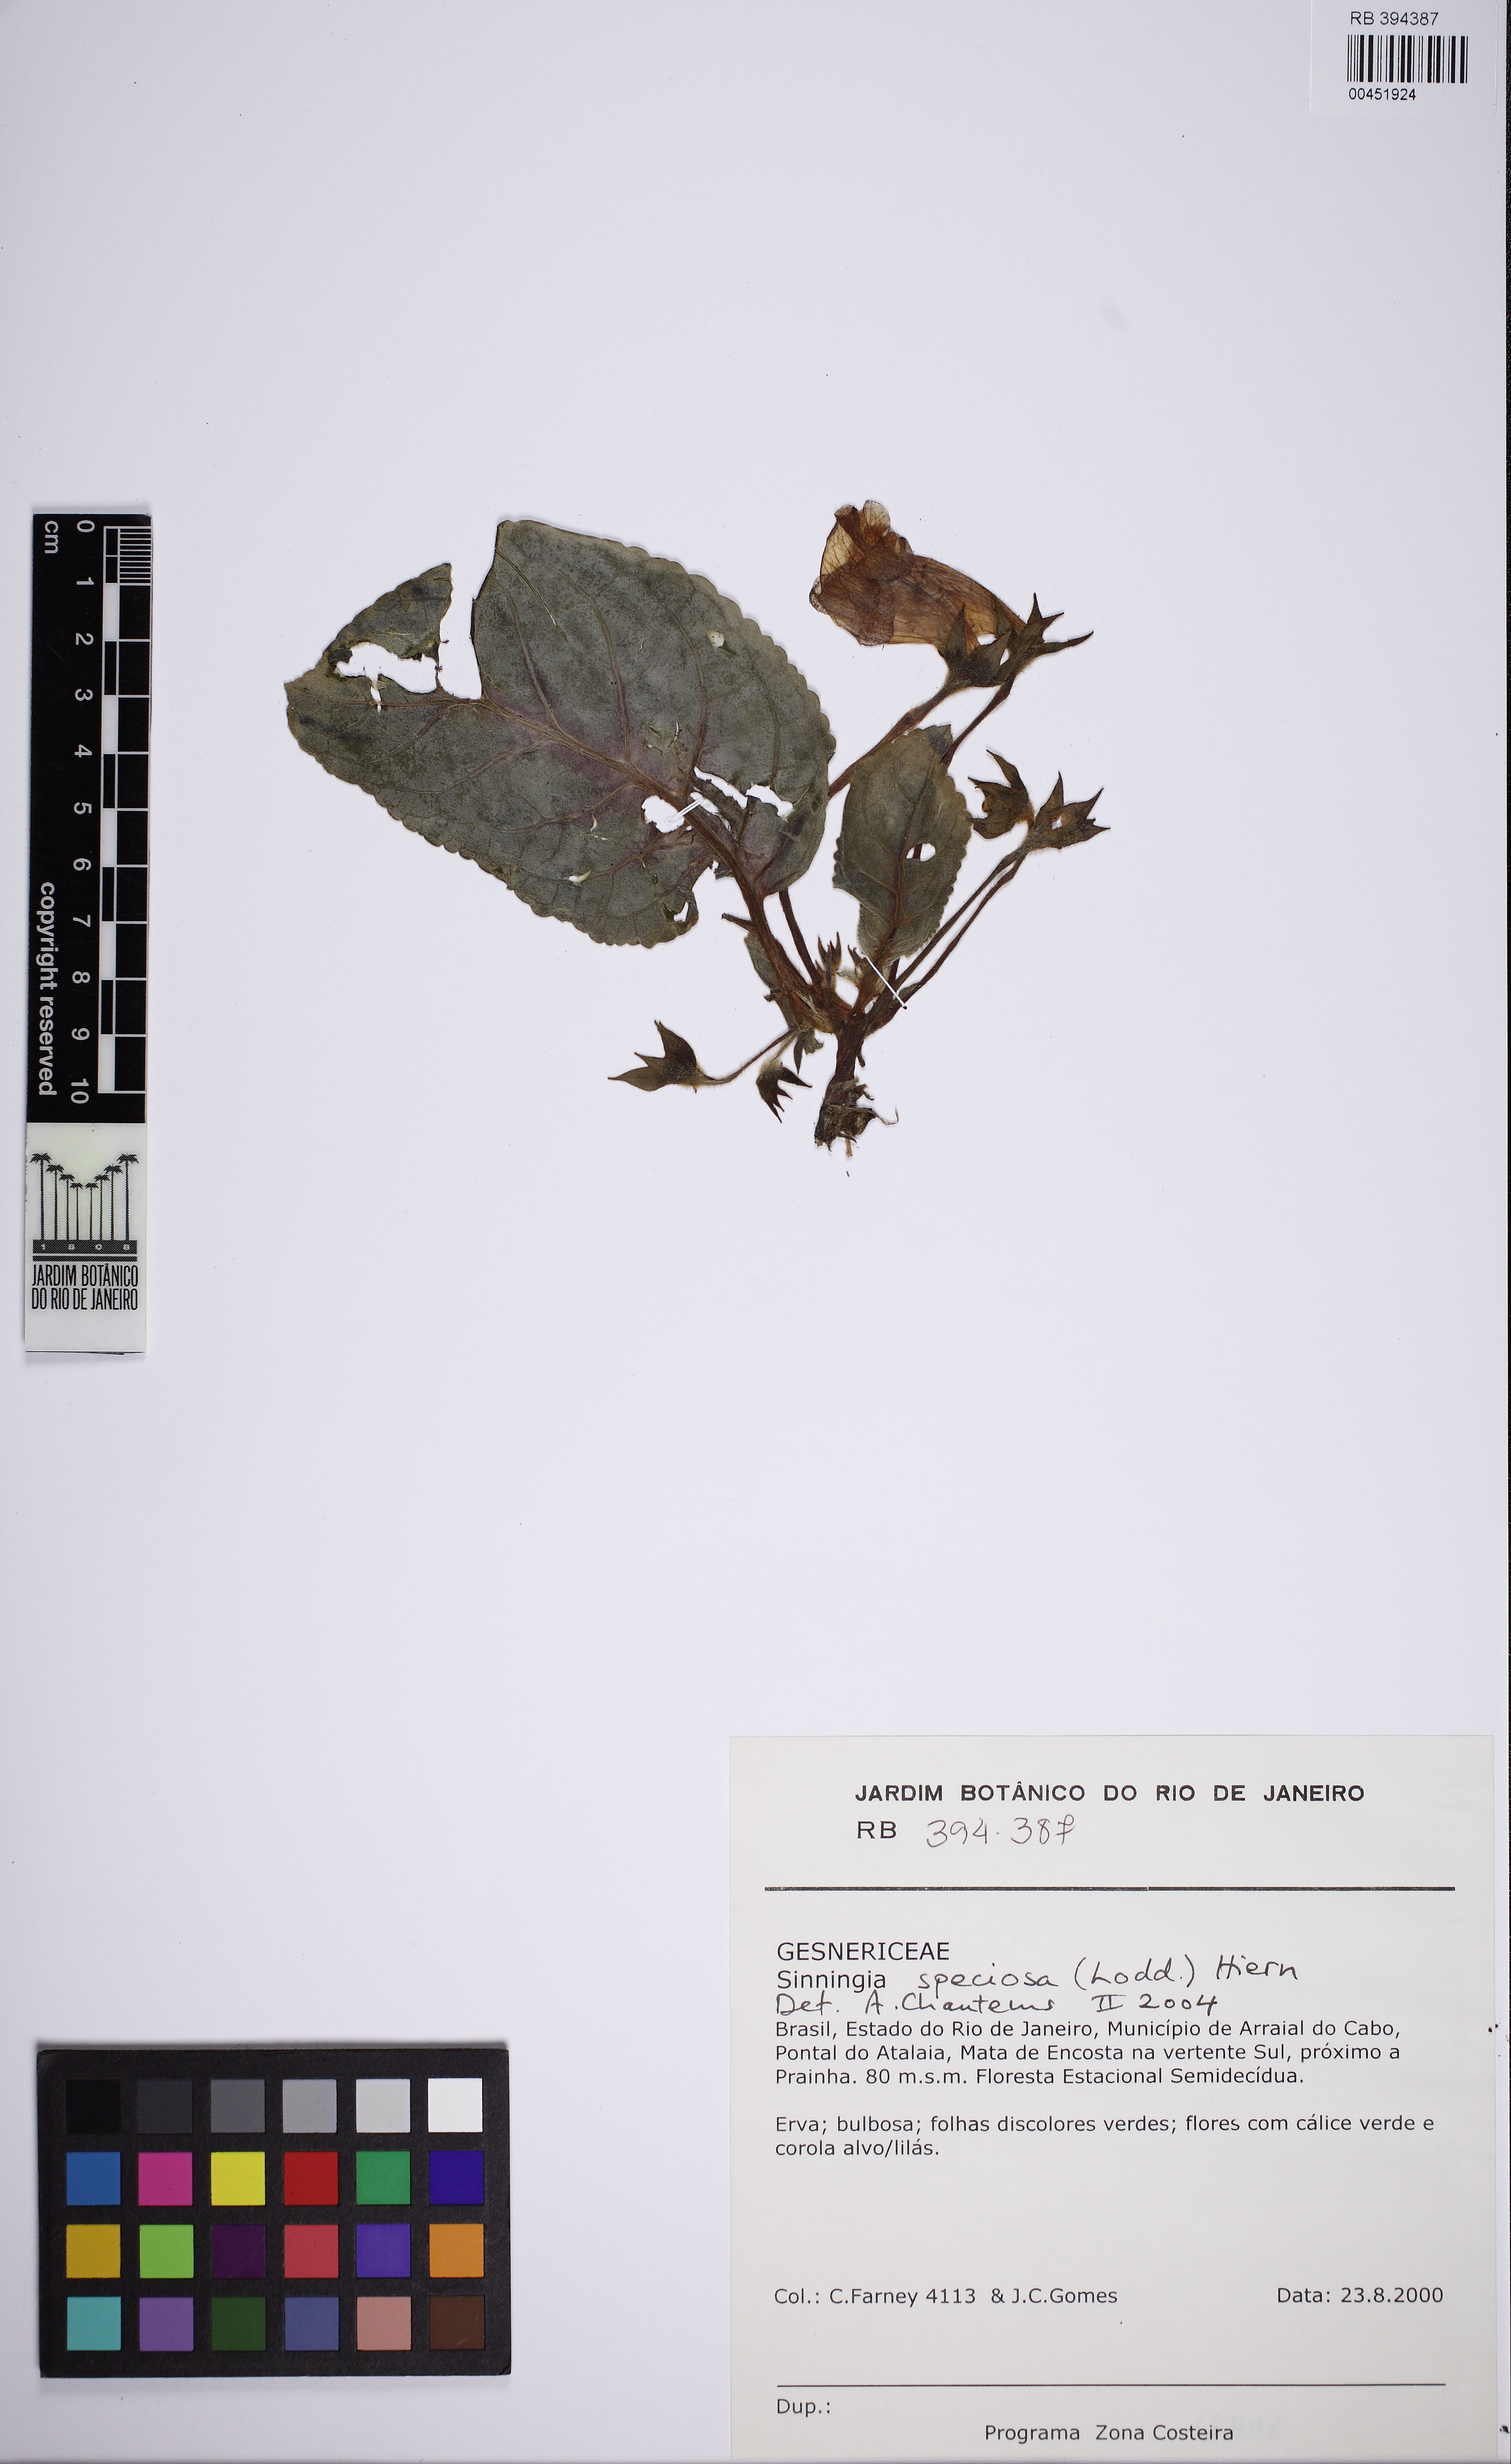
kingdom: Plantae
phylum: Tracheophyta
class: Magnoliopsida
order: Lamiales
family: Gesneriaceae
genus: Sinningia
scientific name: Sinningia speciosa
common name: Brazilian gloxinia
